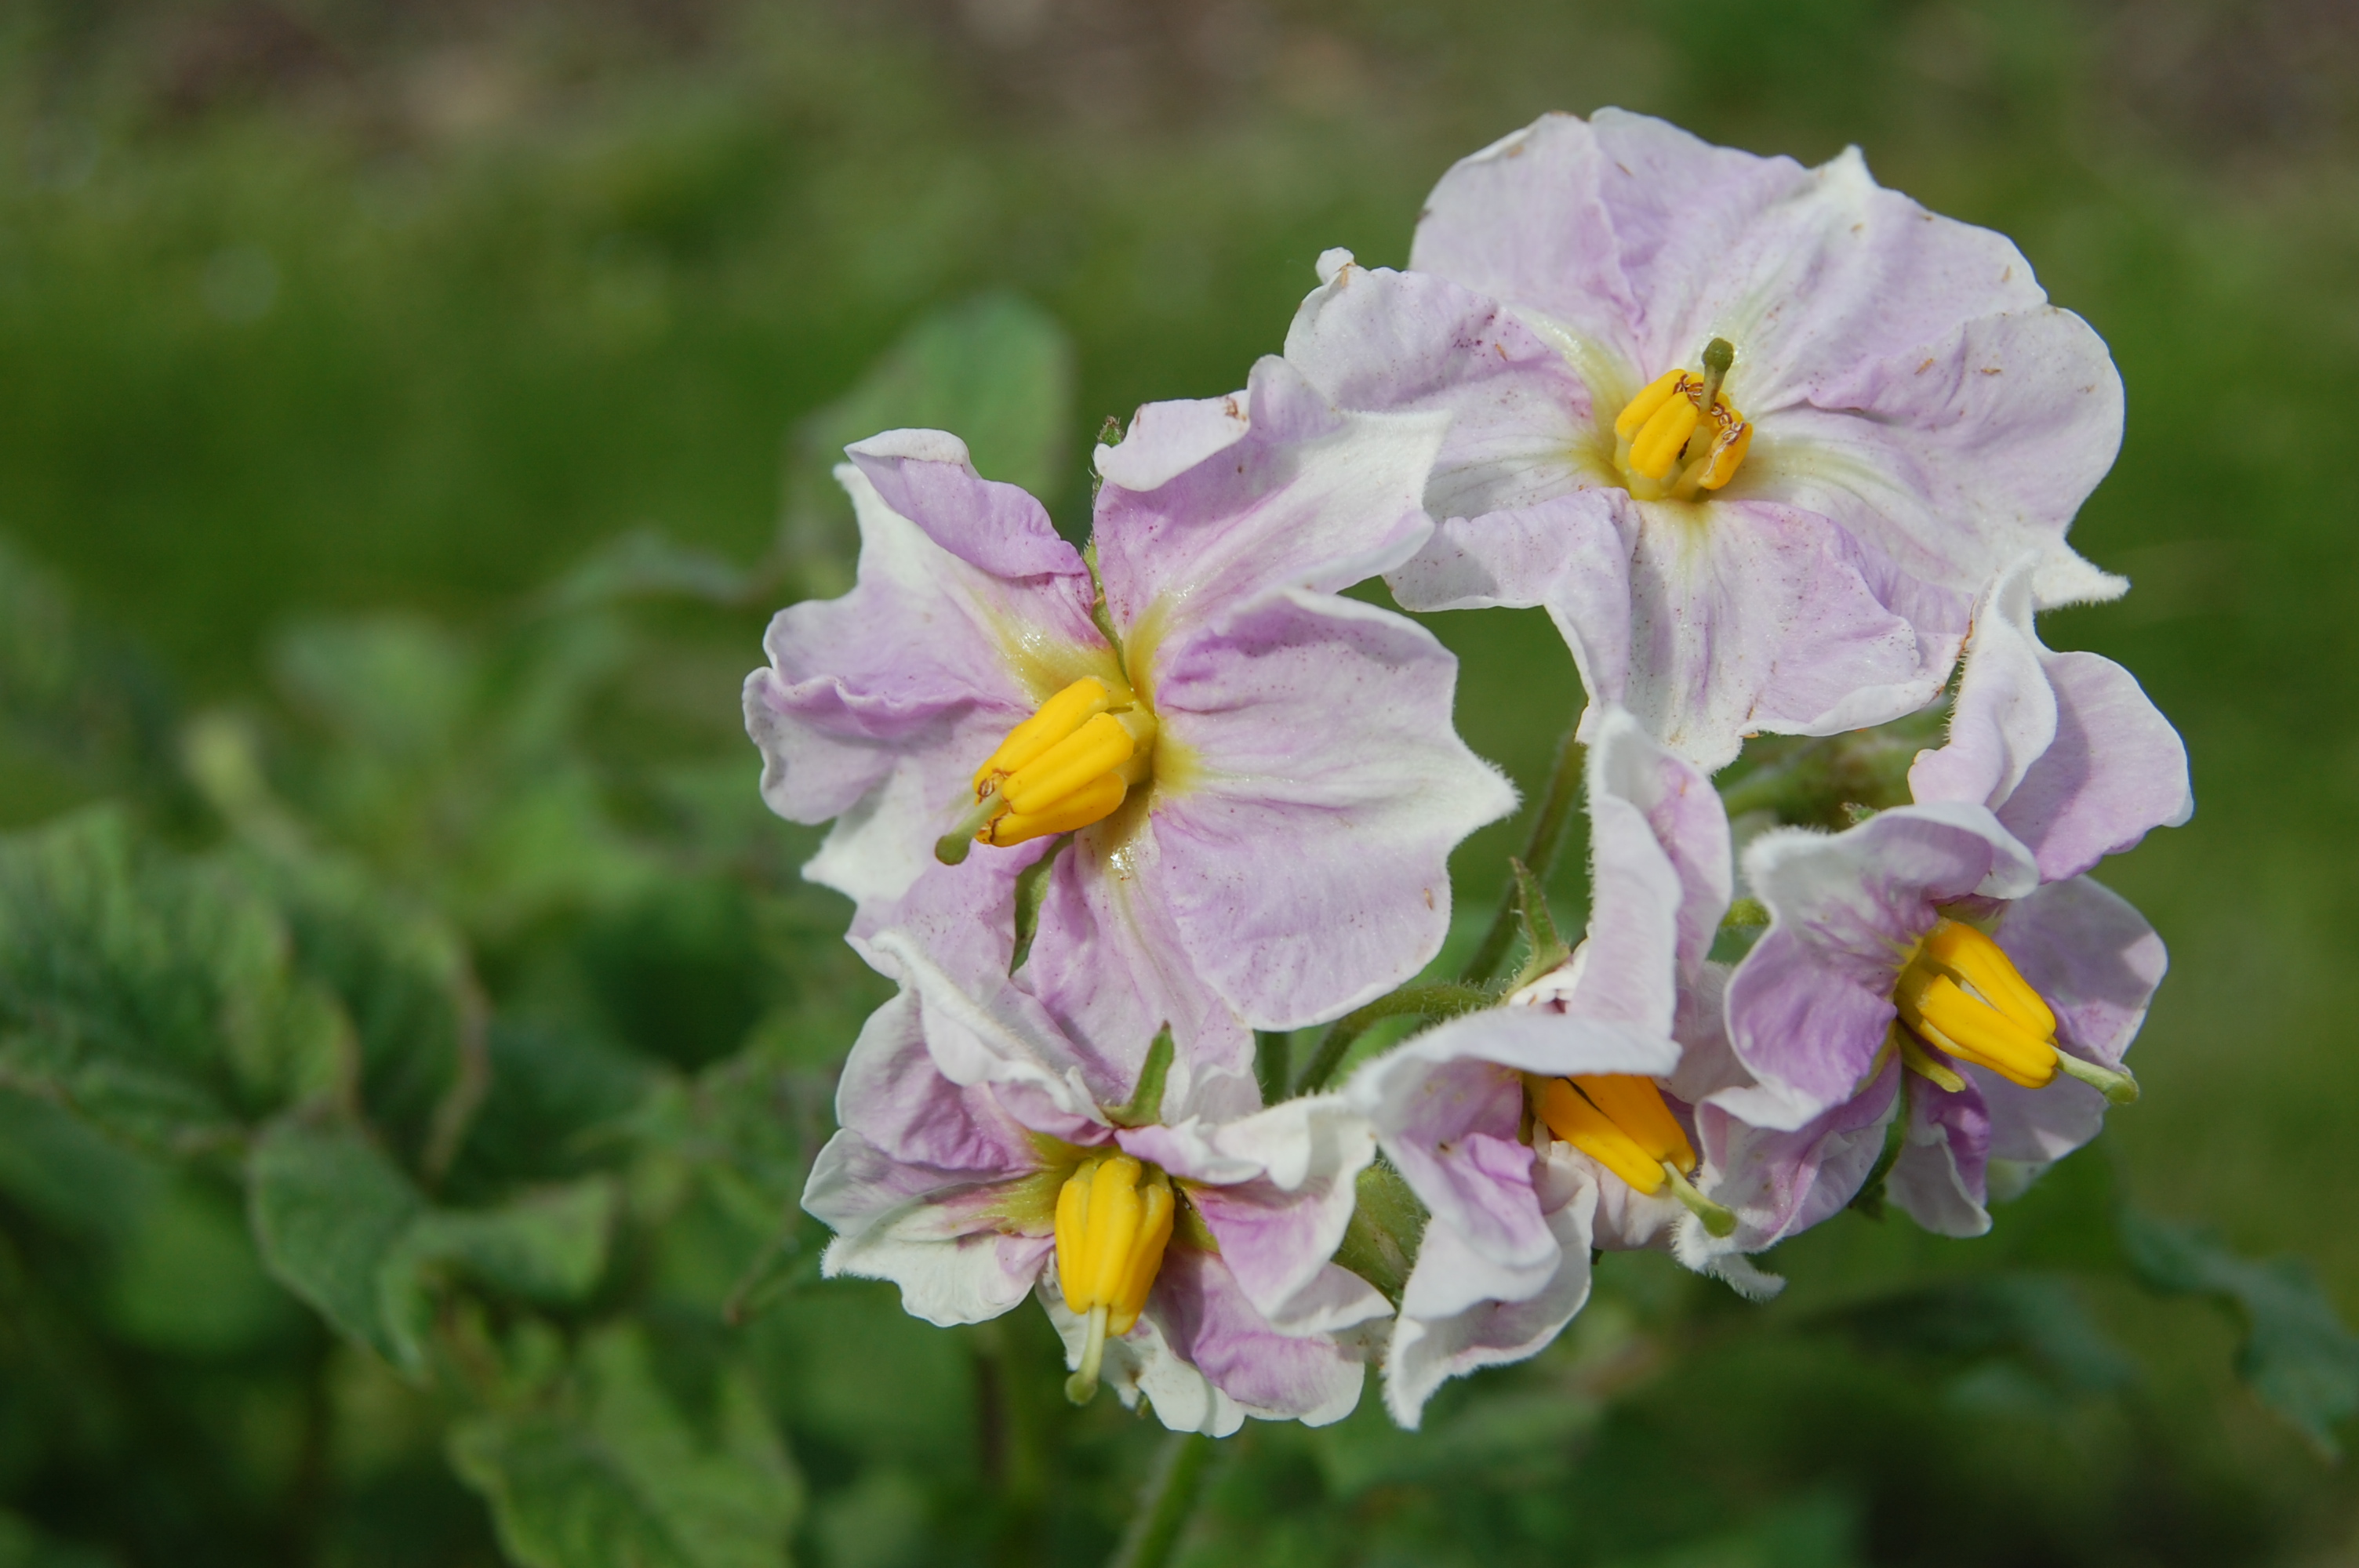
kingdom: Plantae
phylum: Tracheophyta
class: Magnoliopsida
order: Solanales
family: Solanaceae
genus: Solanum
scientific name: Solanum tuberosum
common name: Potato
